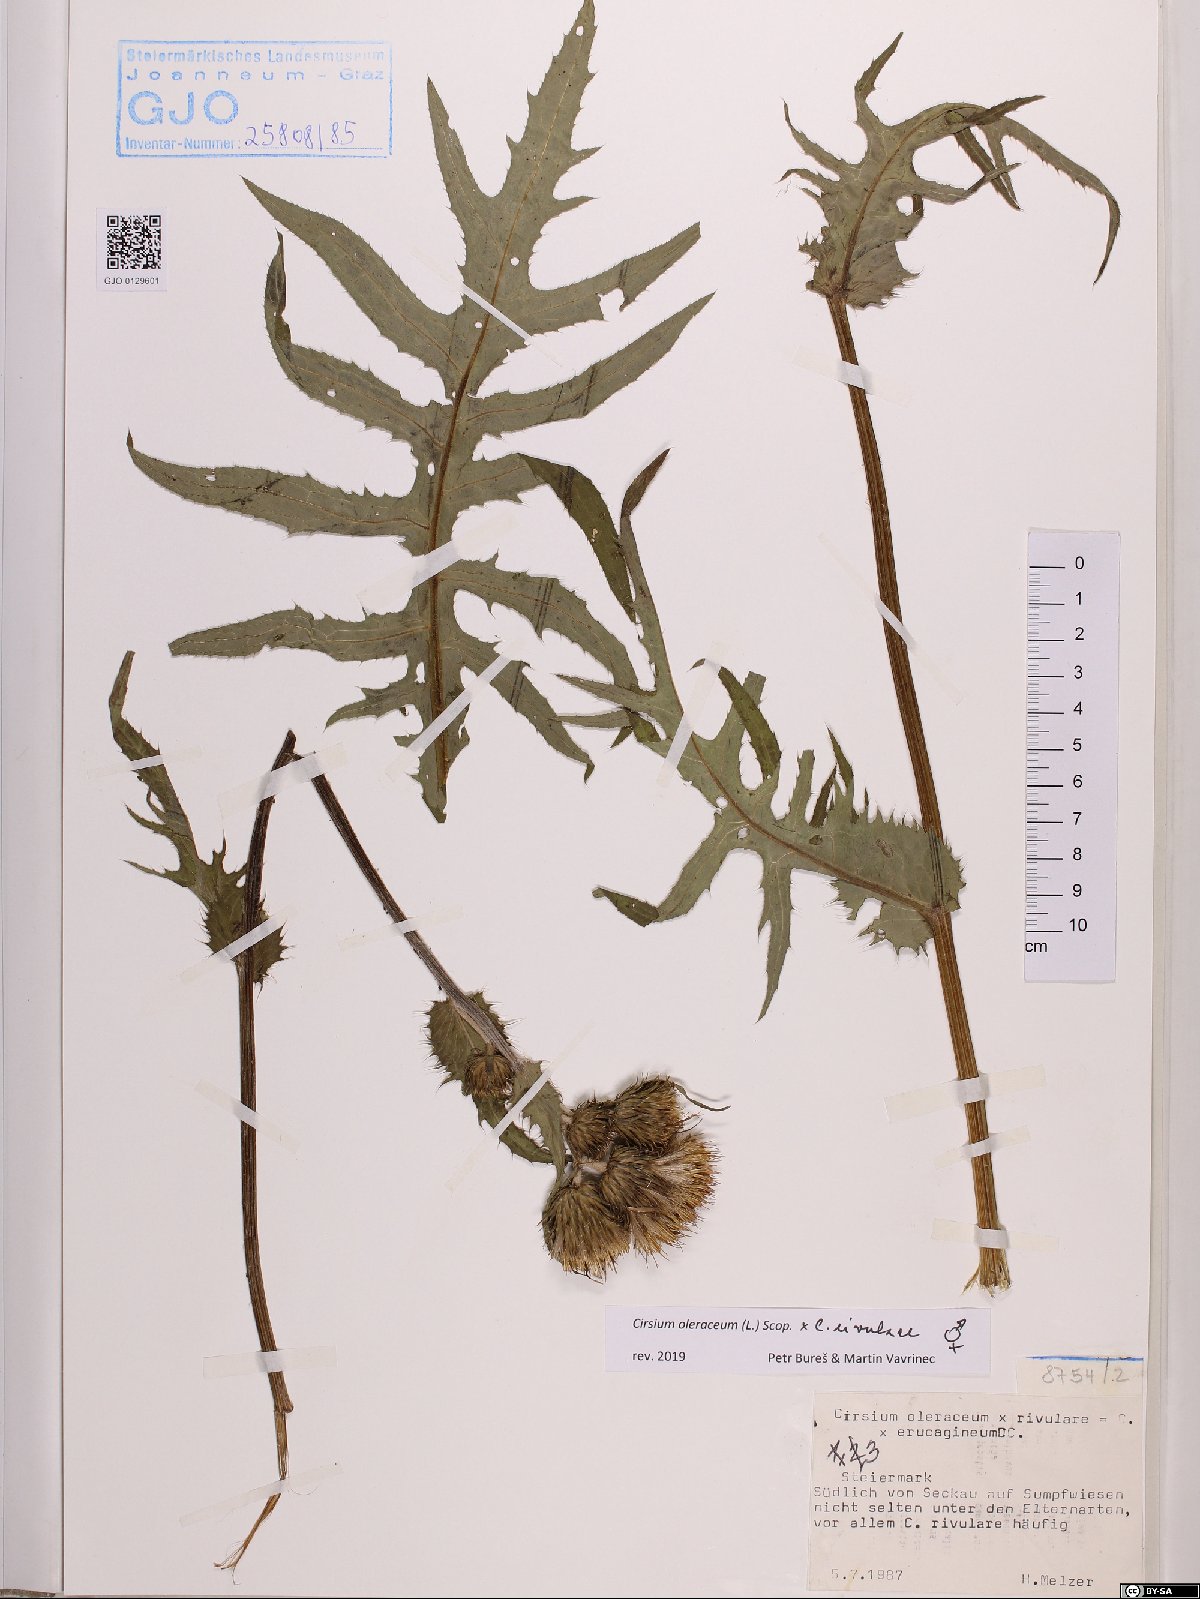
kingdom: Plantae
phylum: Tracheophyta
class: Magnoliopsida
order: Asterales
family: Asteraceae
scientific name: Asteraceae
